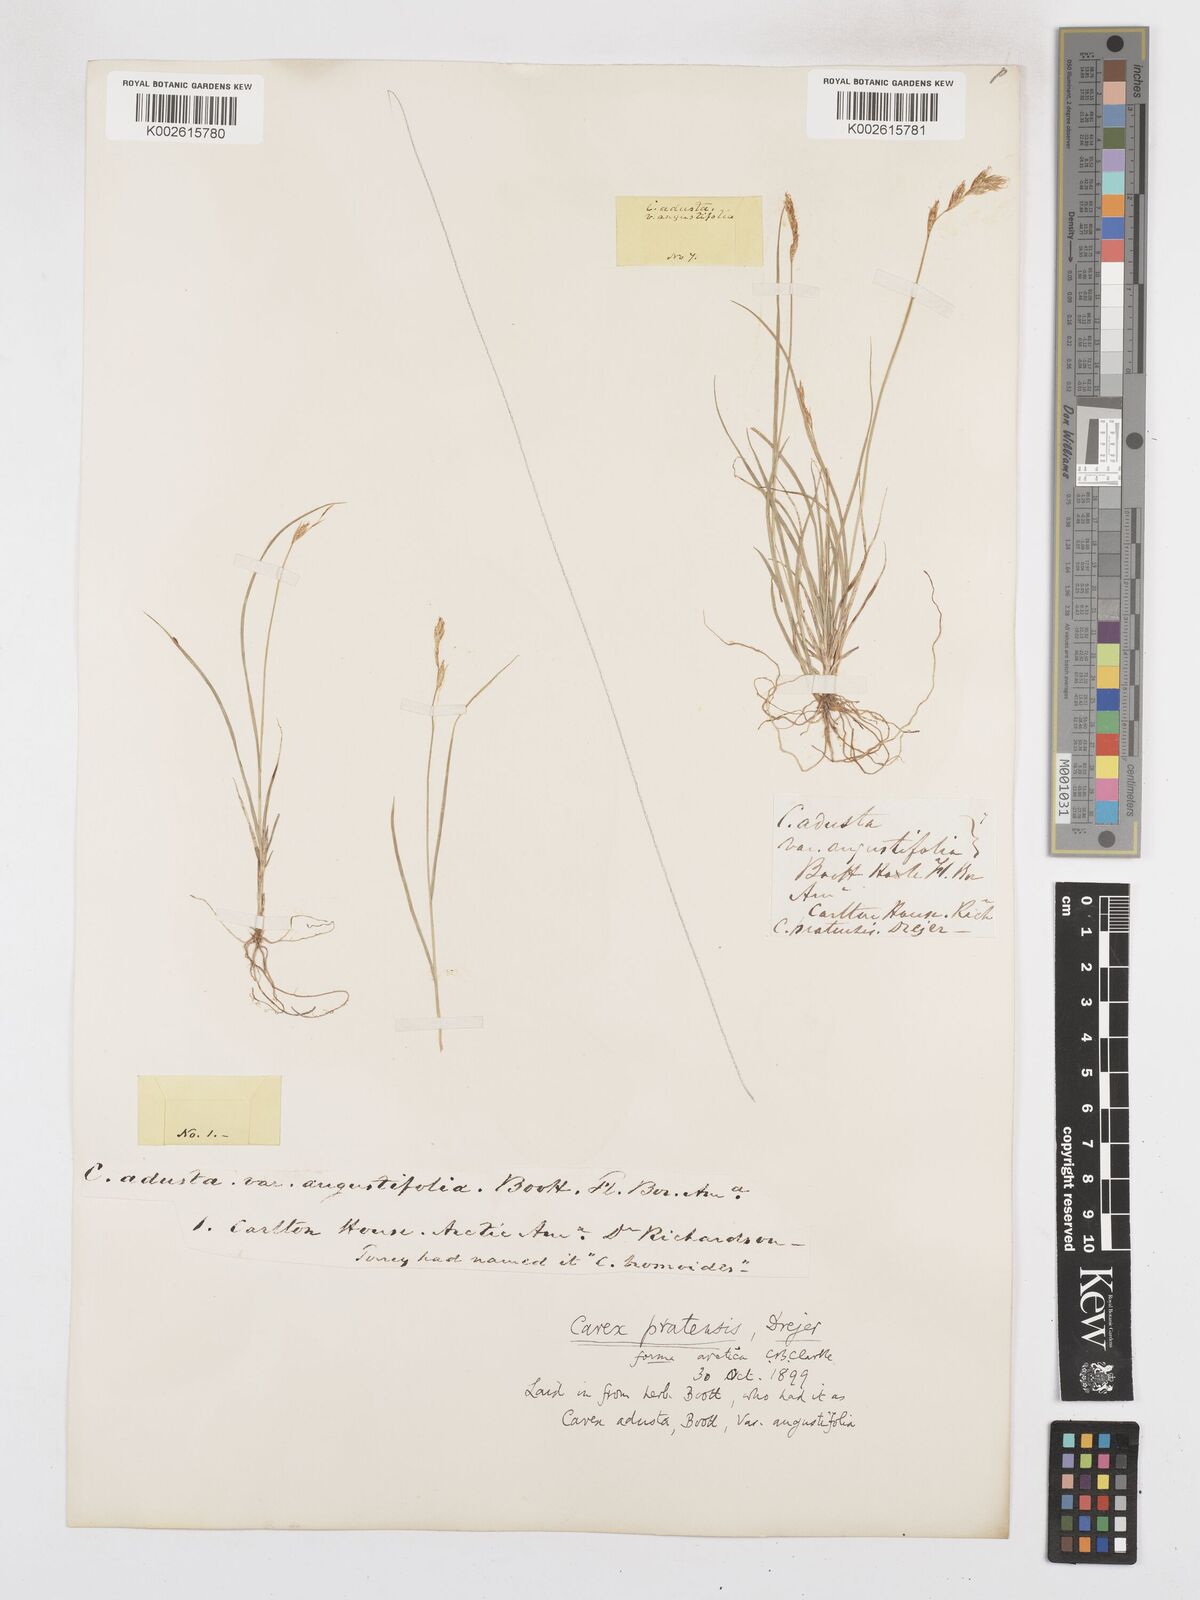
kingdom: Plantae
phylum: Tracheophyta
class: Liliopsida
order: Poales
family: Cyperaceae
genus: Carex
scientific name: Carex praticola
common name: Large-fruited oval sedge
